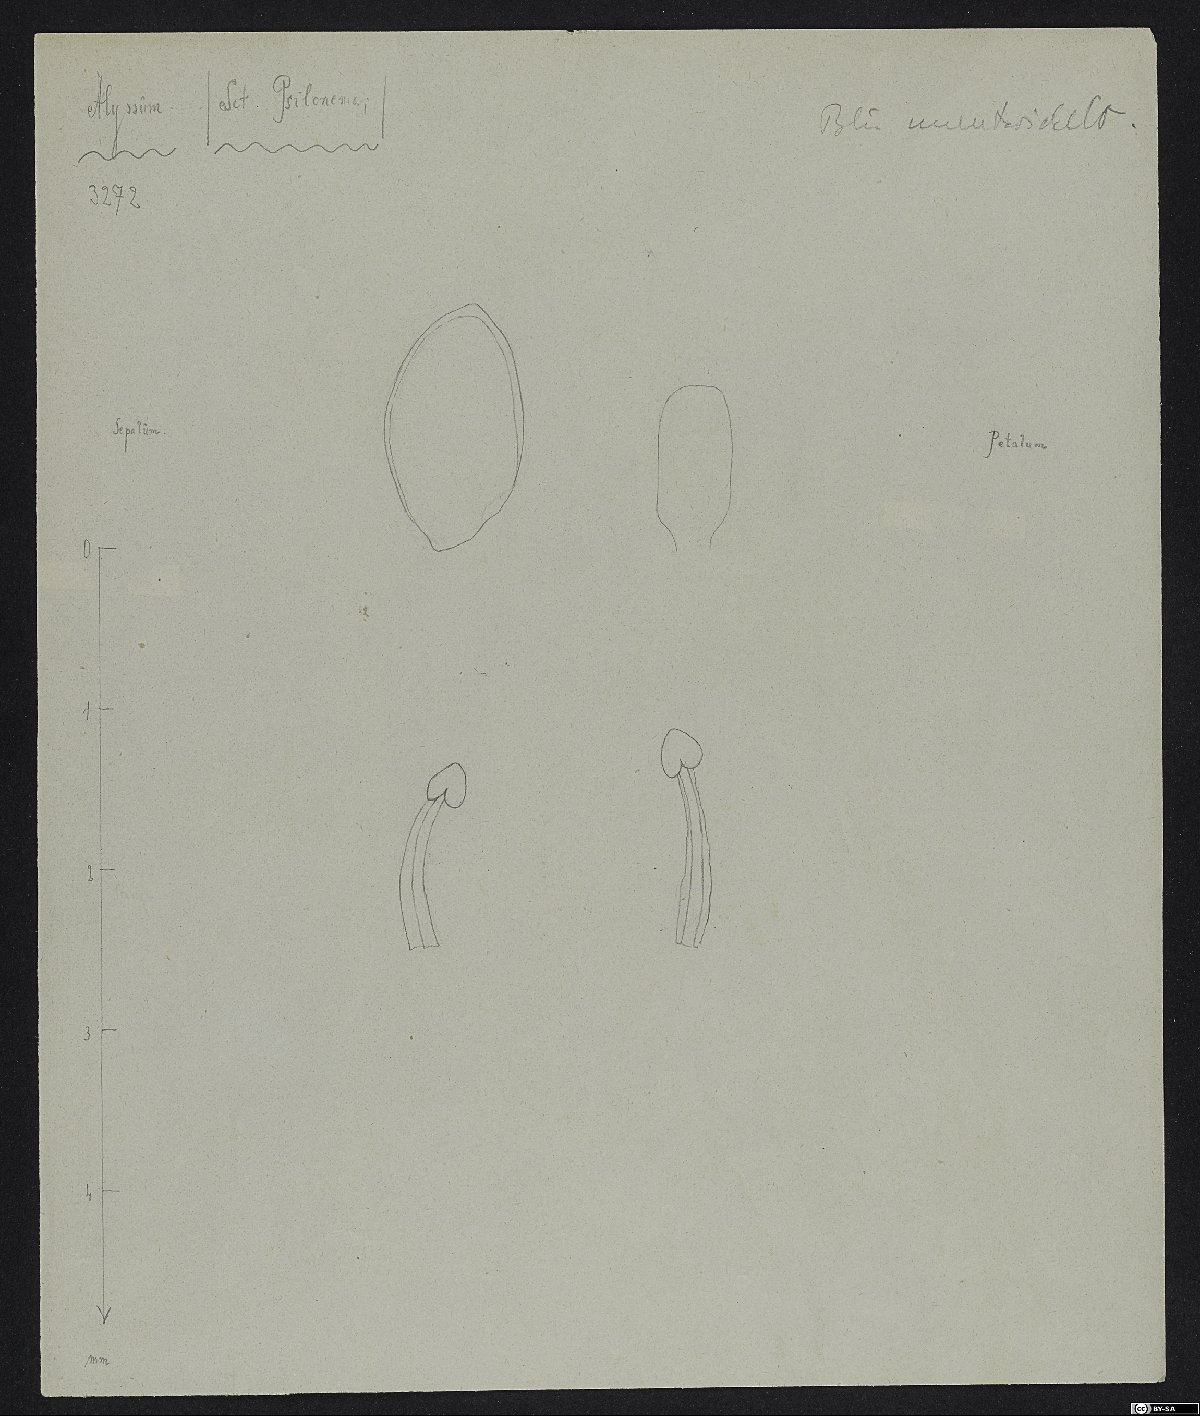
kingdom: Plantae
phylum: Tracheophyta
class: Magnoliopsida
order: Brassicales
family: Brassicaceae
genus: Cuprella
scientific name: Cuprella homalocarpa
